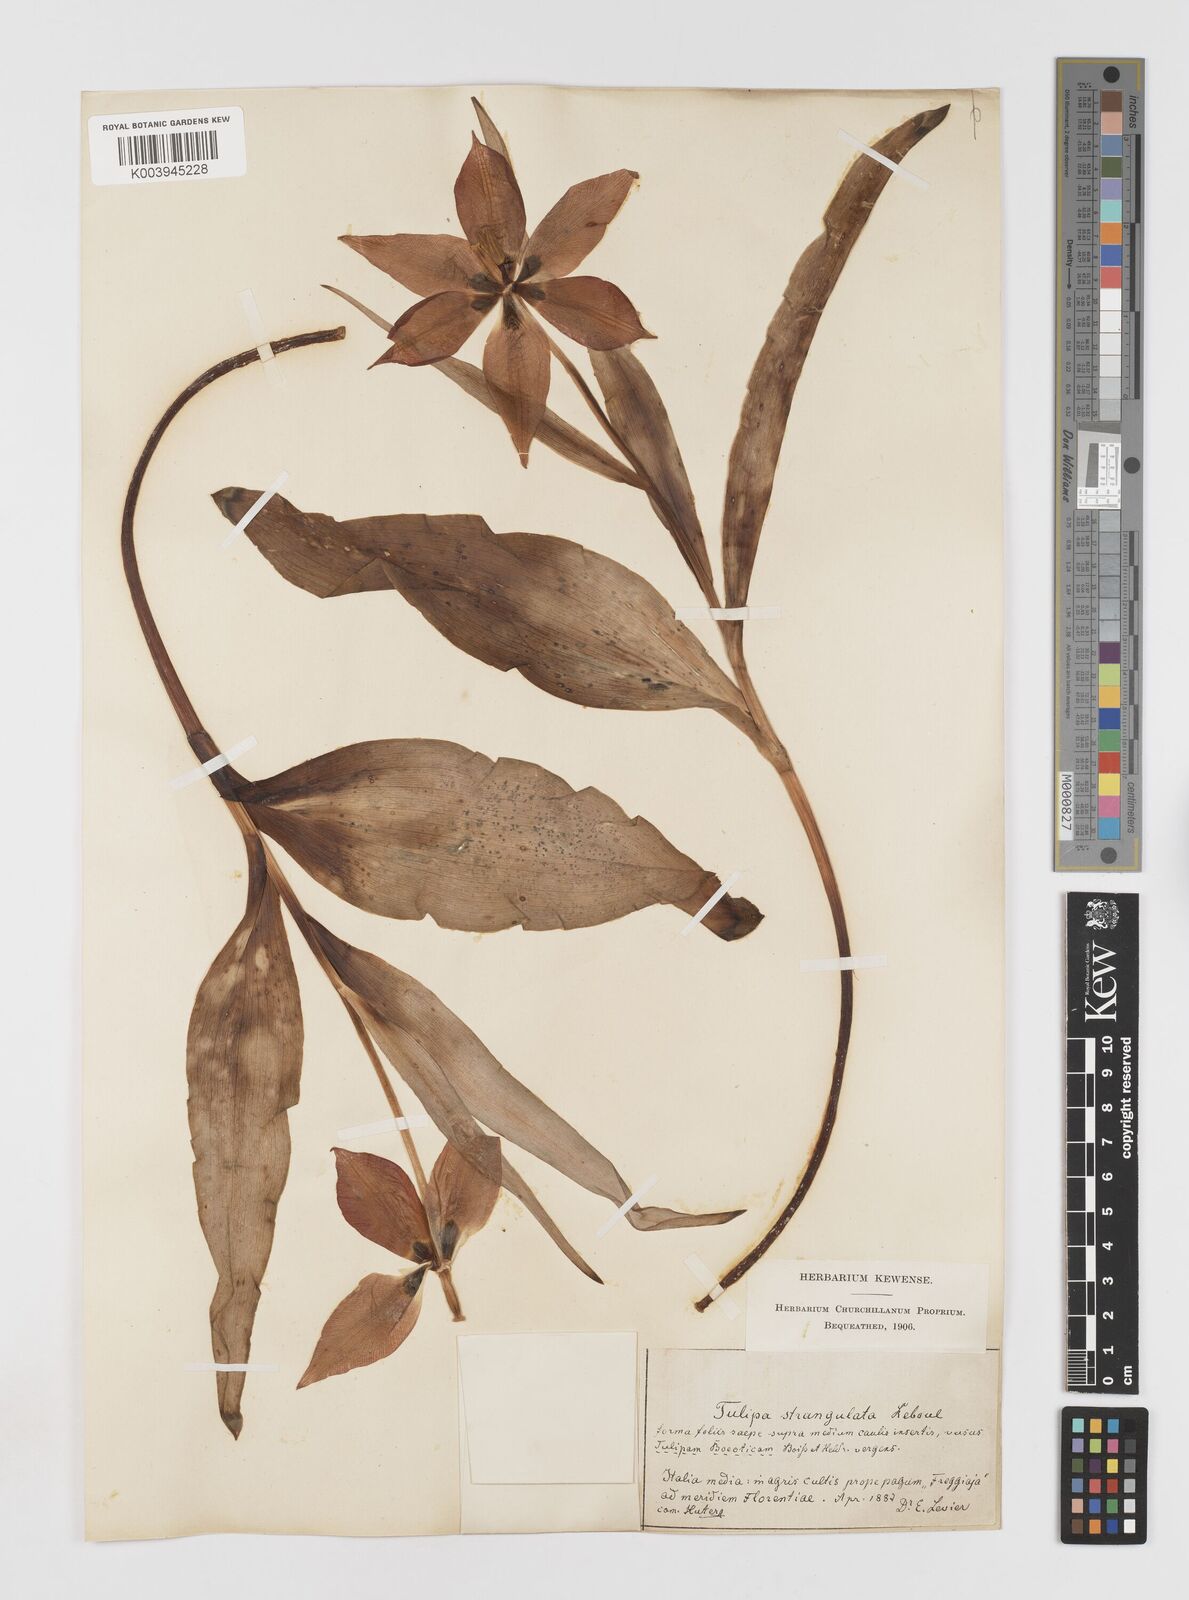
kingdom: Plantae
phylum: Tracheophyta
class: Liliopsida
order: Liliales
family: Liliaceae
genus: Tulipa
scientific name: Tulipa
